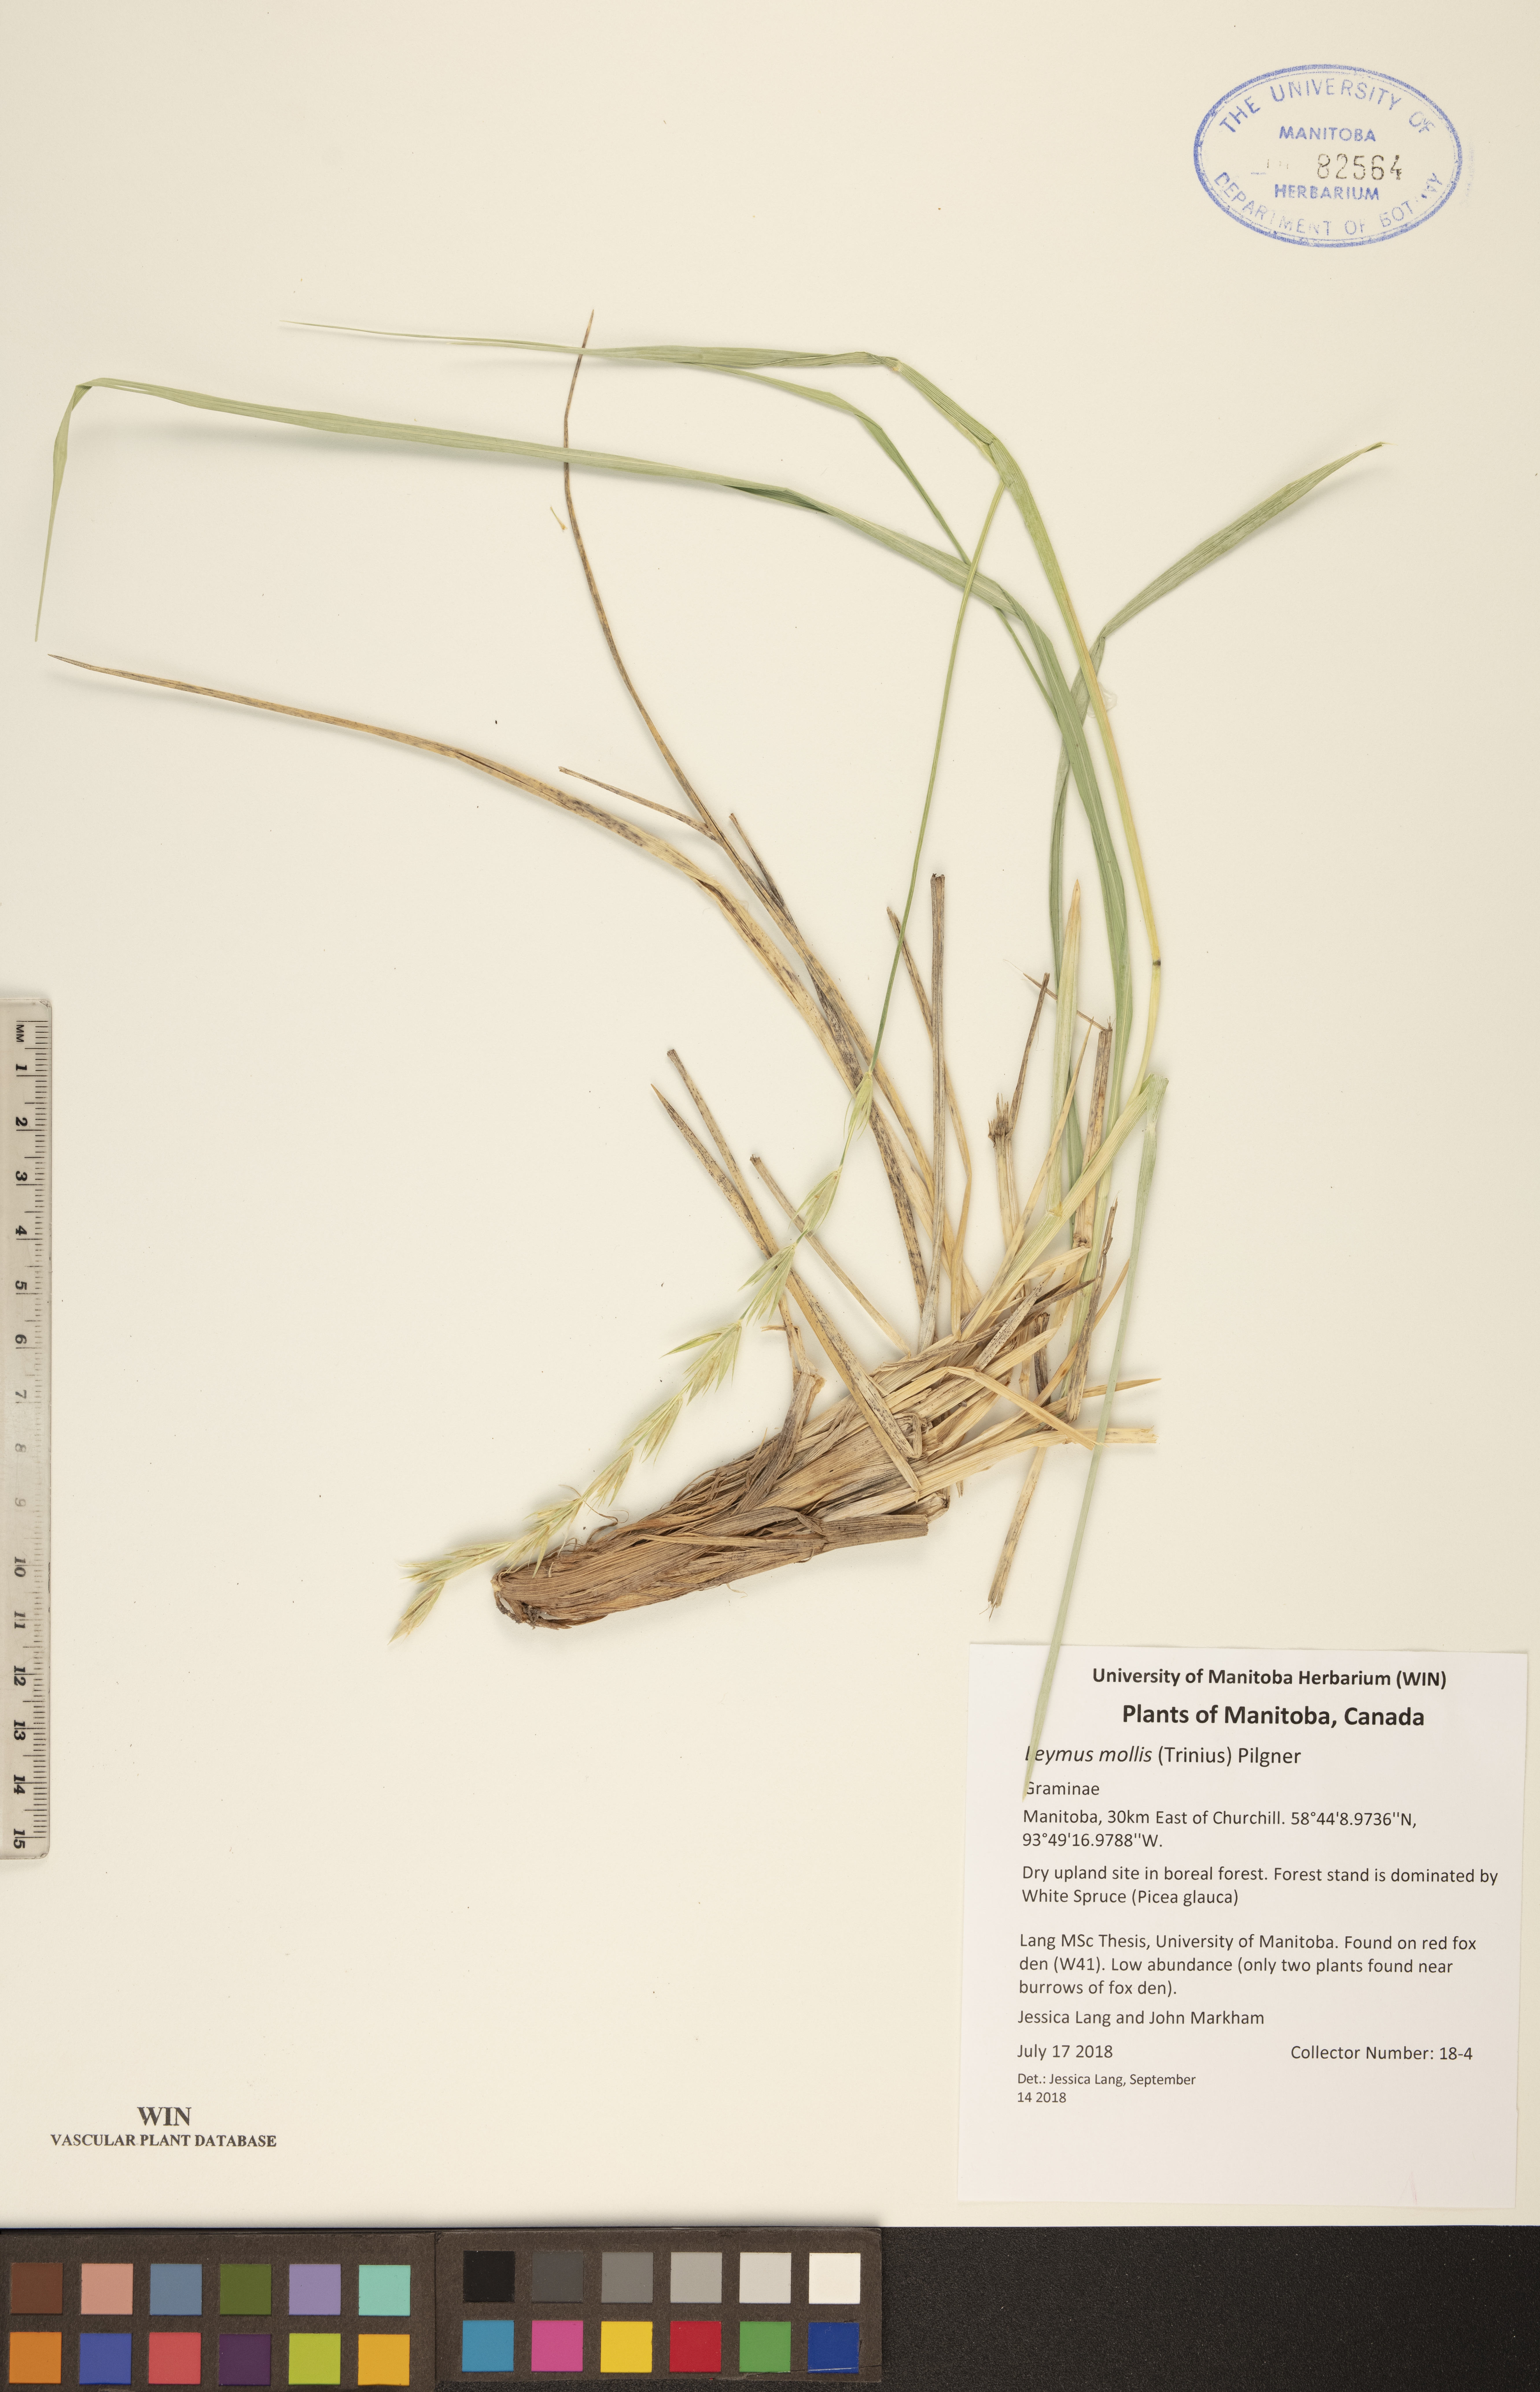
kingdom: Plantae
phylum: Tracheophyta
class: Liliopsida
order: Poales
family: Poaceae
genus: Leymus
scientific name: Leymus mollis
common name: American dune grass
